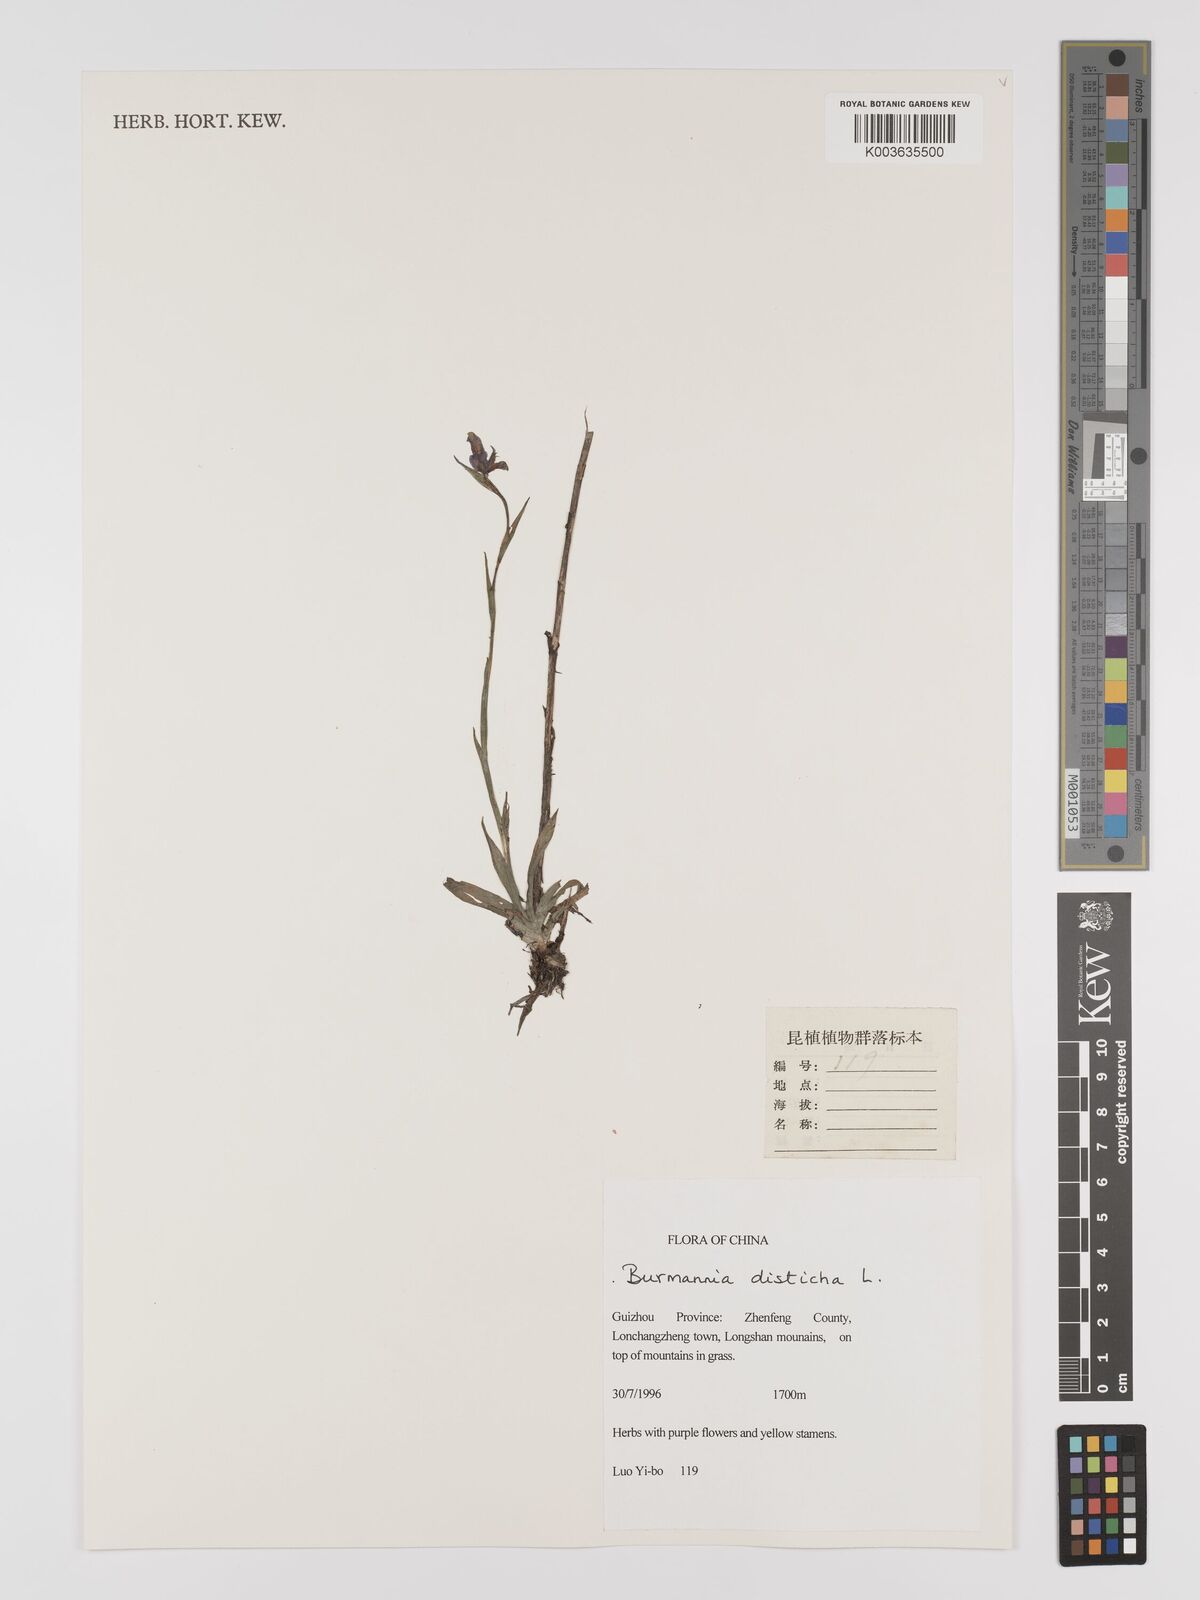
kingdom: Plantae
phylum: Tracheophyta
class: Liliopsida
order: Dioscoreales
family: Burmanniaceae
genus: Burmannia
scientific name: Burmannia disticha
